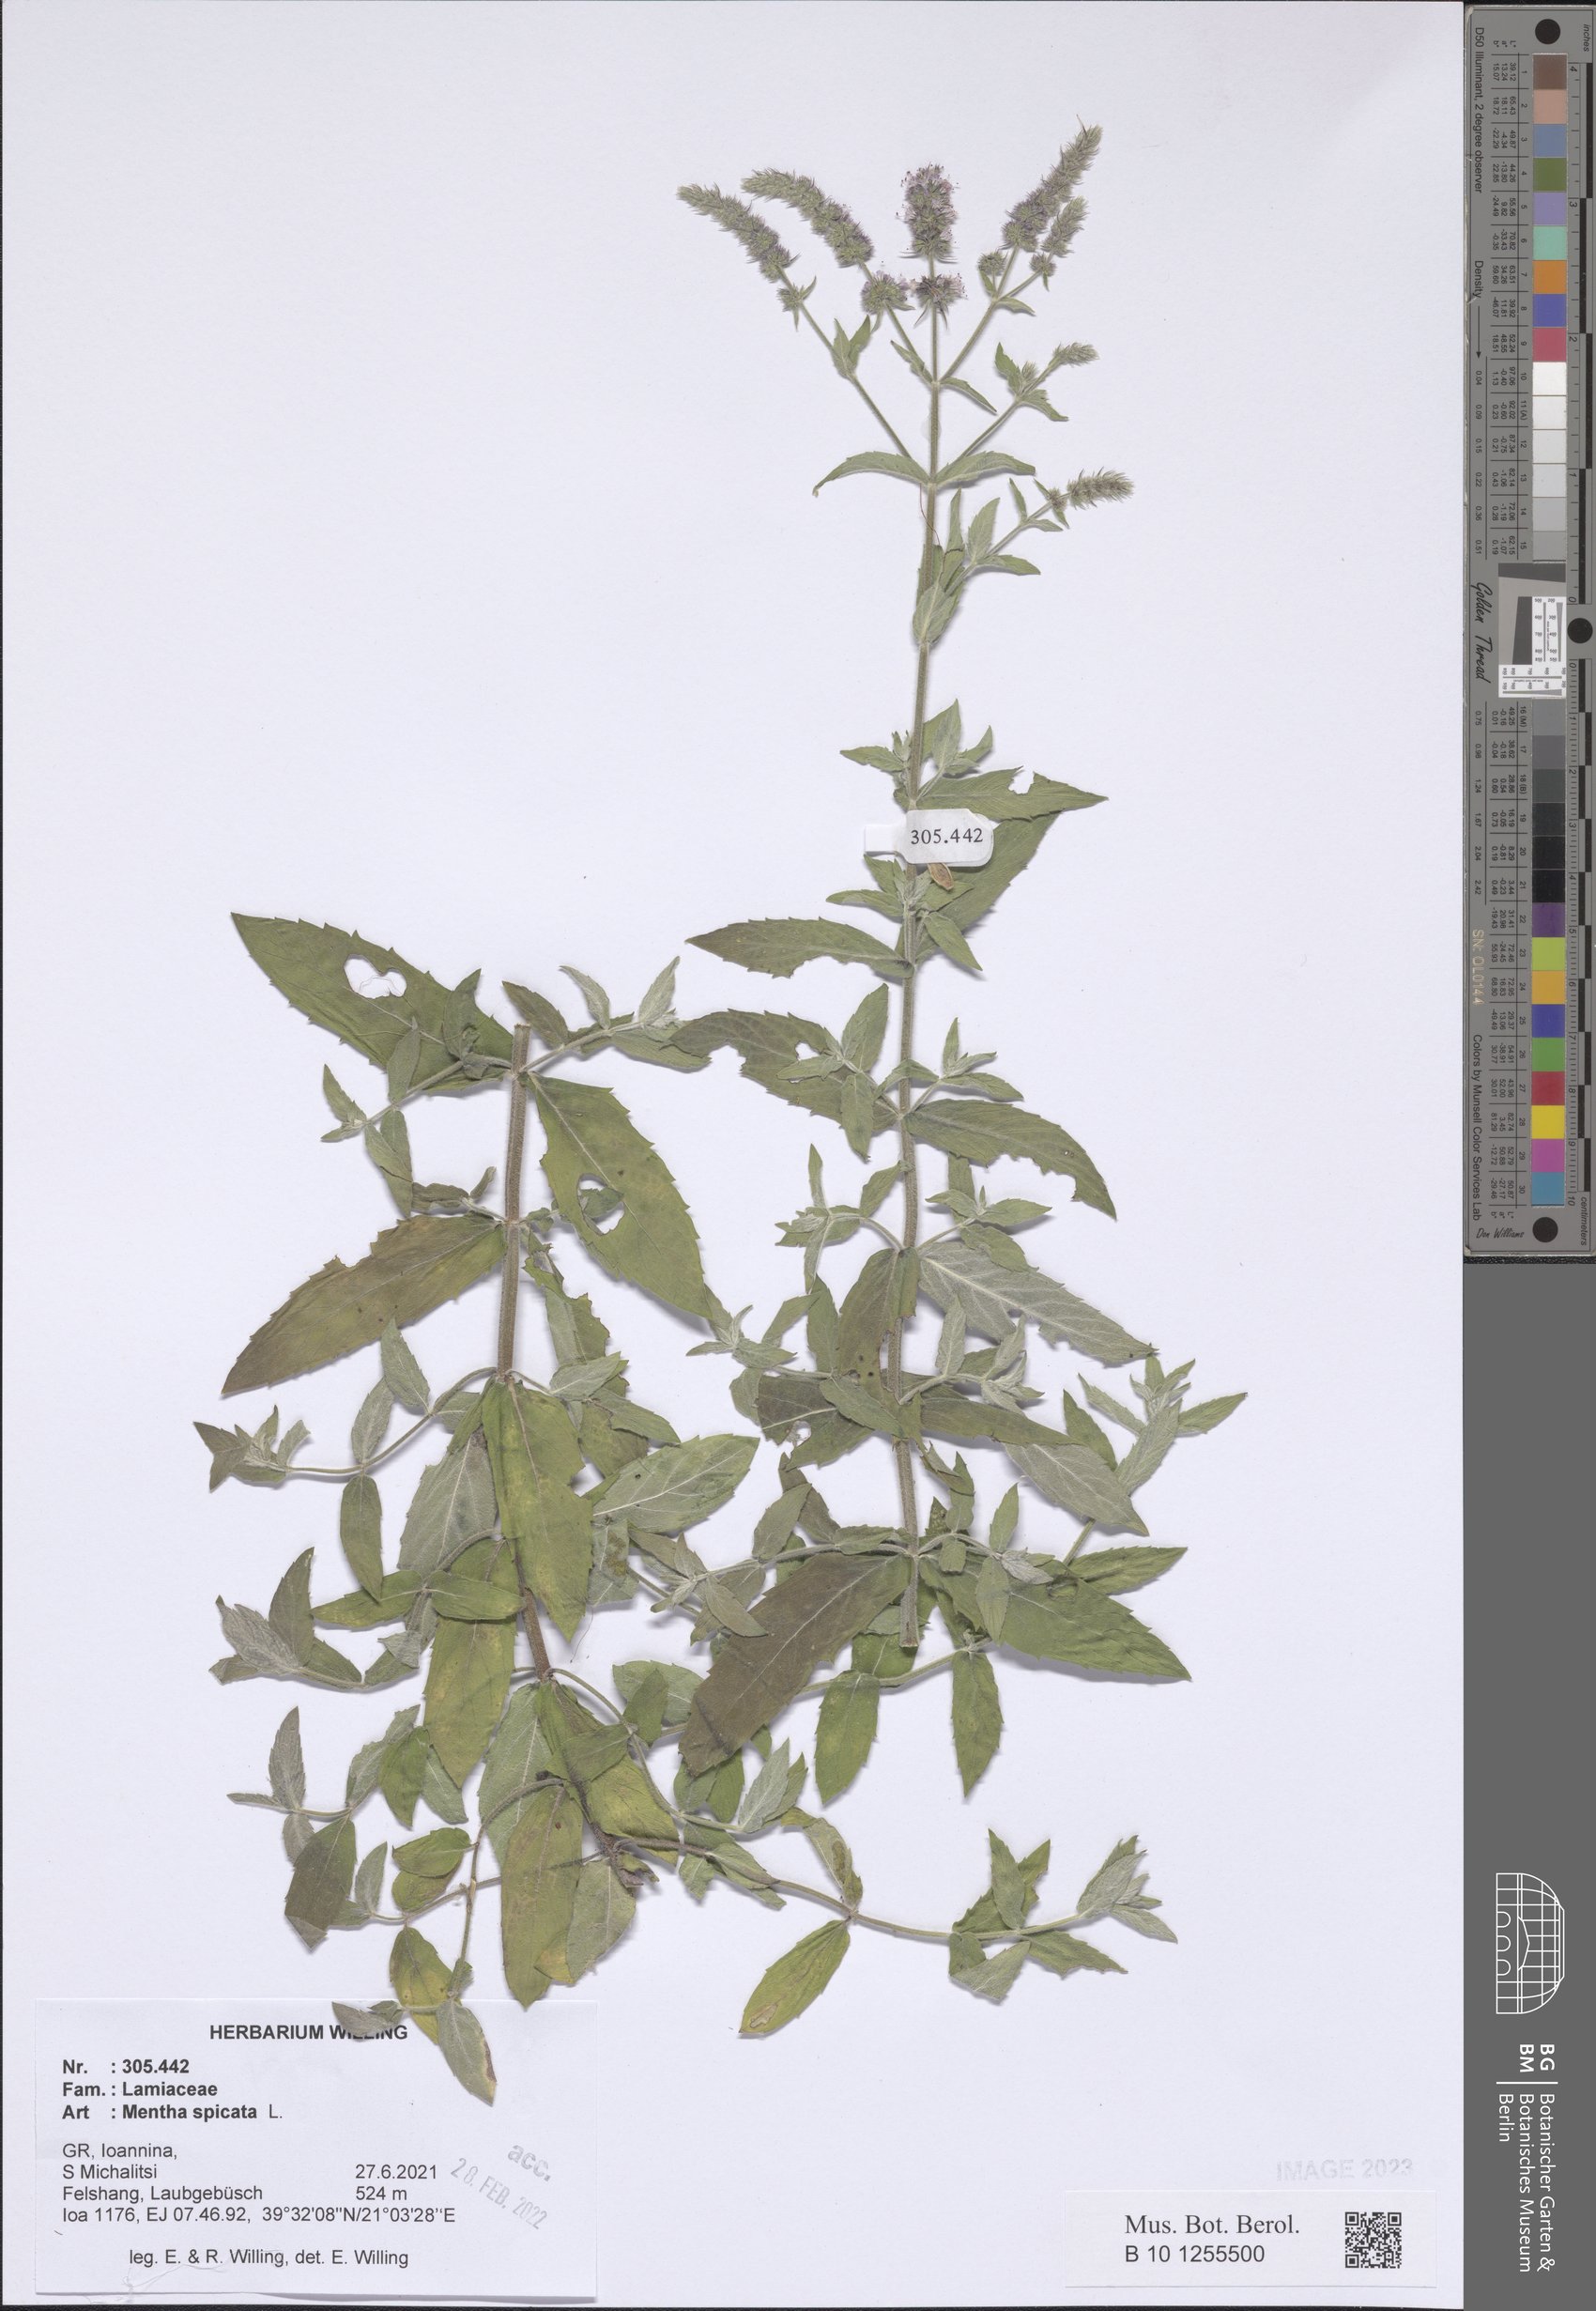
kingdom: Plantae
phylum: Tracheophyta
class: Magnoliopsida
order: Lamiales
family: Lamiaceae
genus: Mentha
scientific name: Mentha spicata
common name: Spearmint
